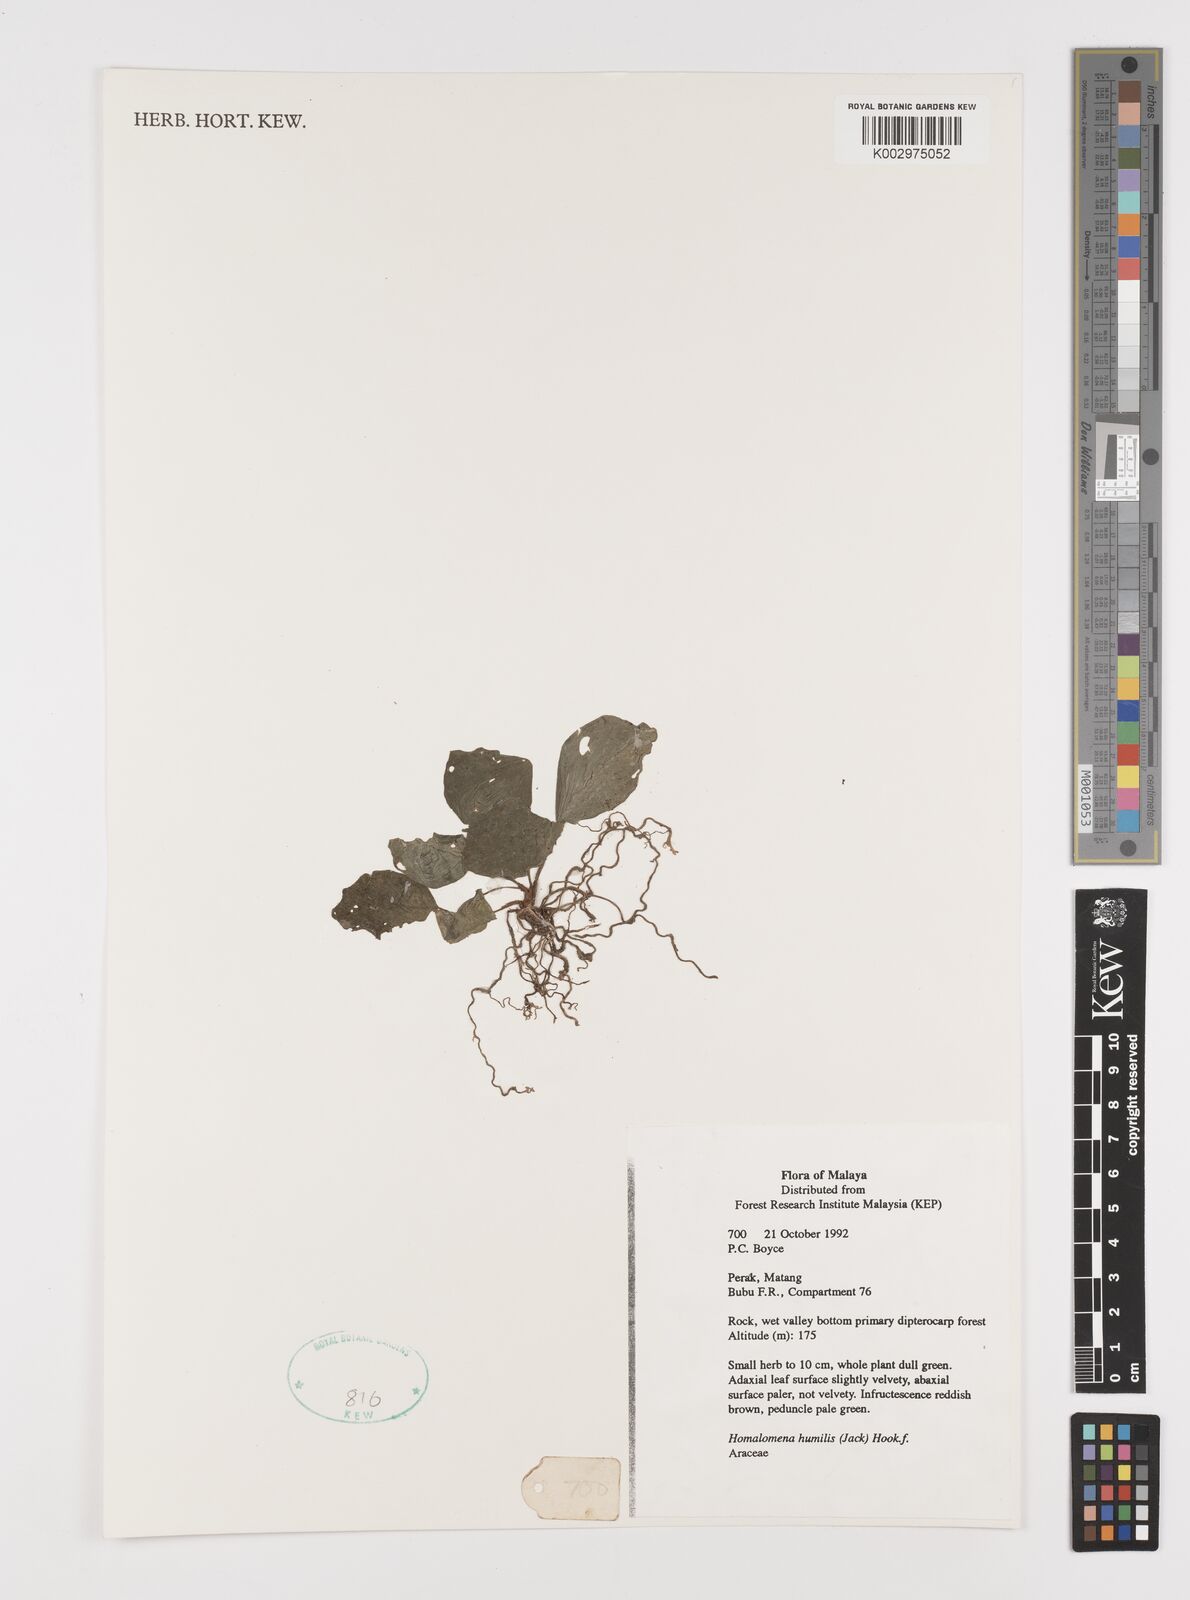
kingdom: Plantae
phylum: Tracheophyta
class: Liliopsida
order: Alismatales
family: Araceae
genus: Homalomena
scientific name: Homalomena humilis
